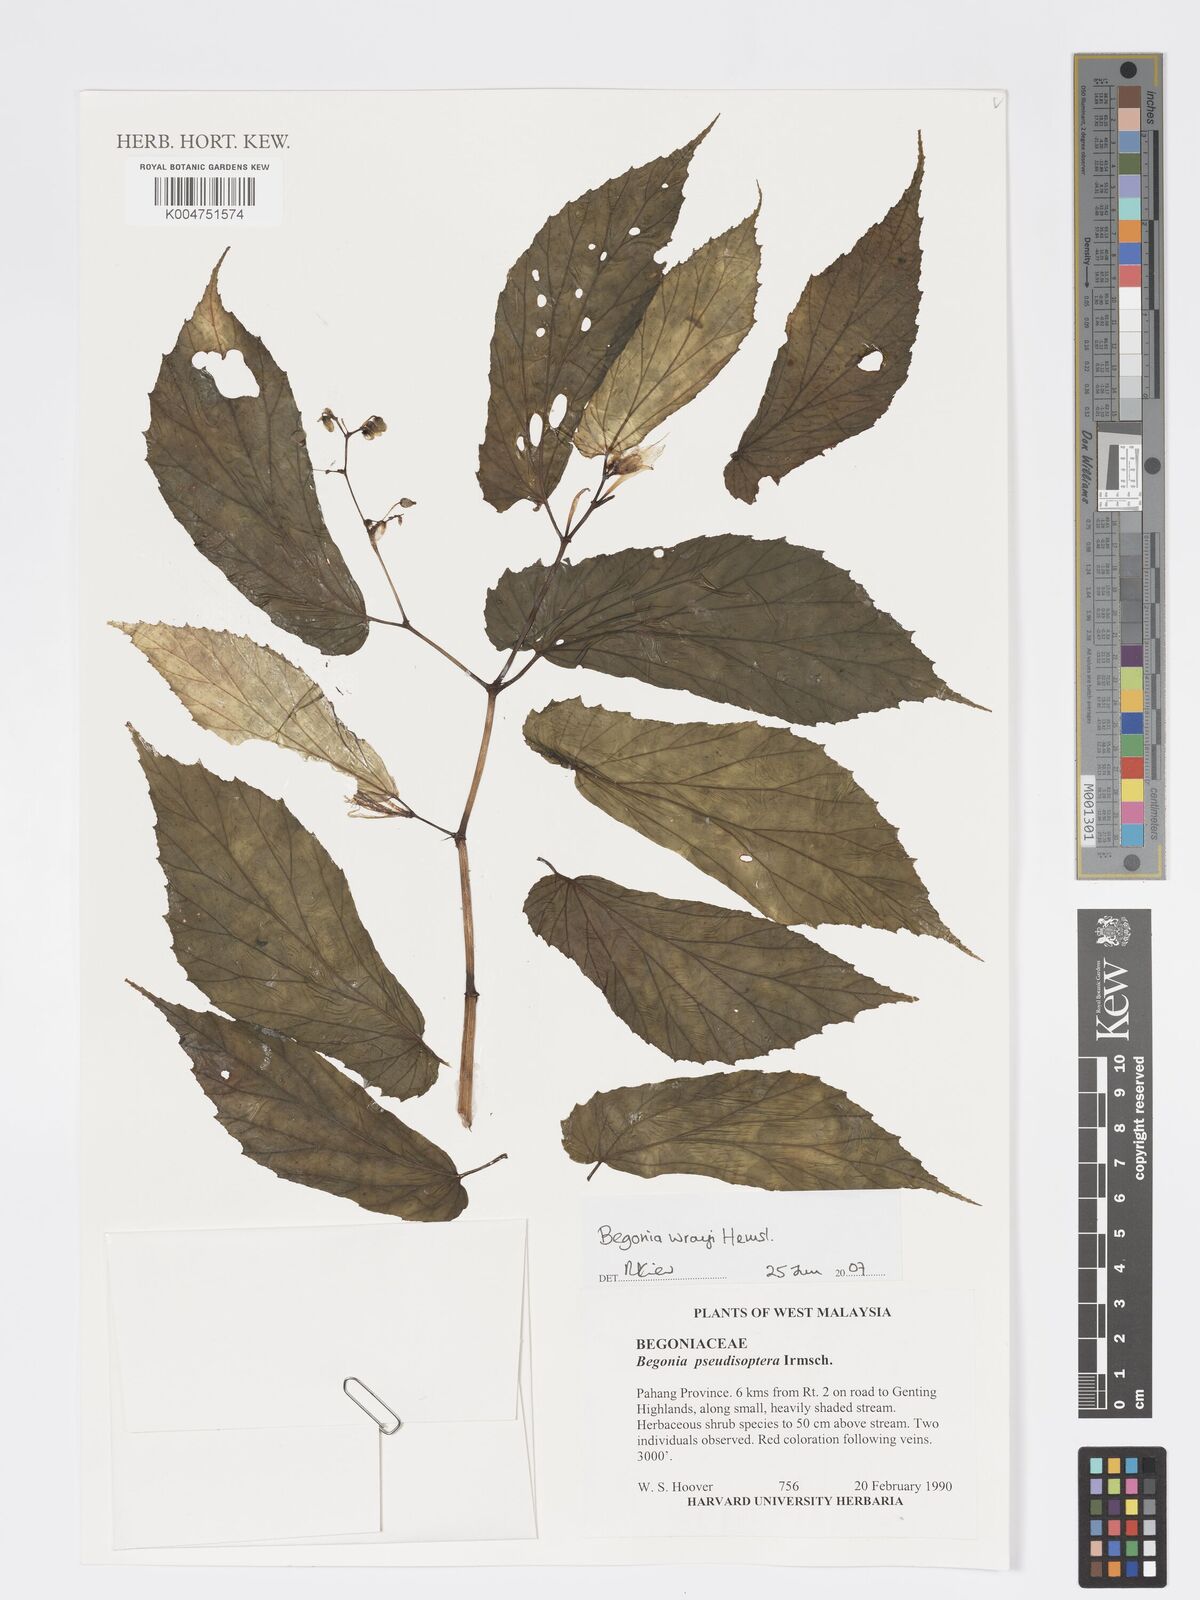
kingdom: Plantae
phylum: Tracheophyta
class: Magnoliopsida
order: Cucurbitales
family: Begoniaceae
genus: Begonia
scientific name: Begonia wrayi
